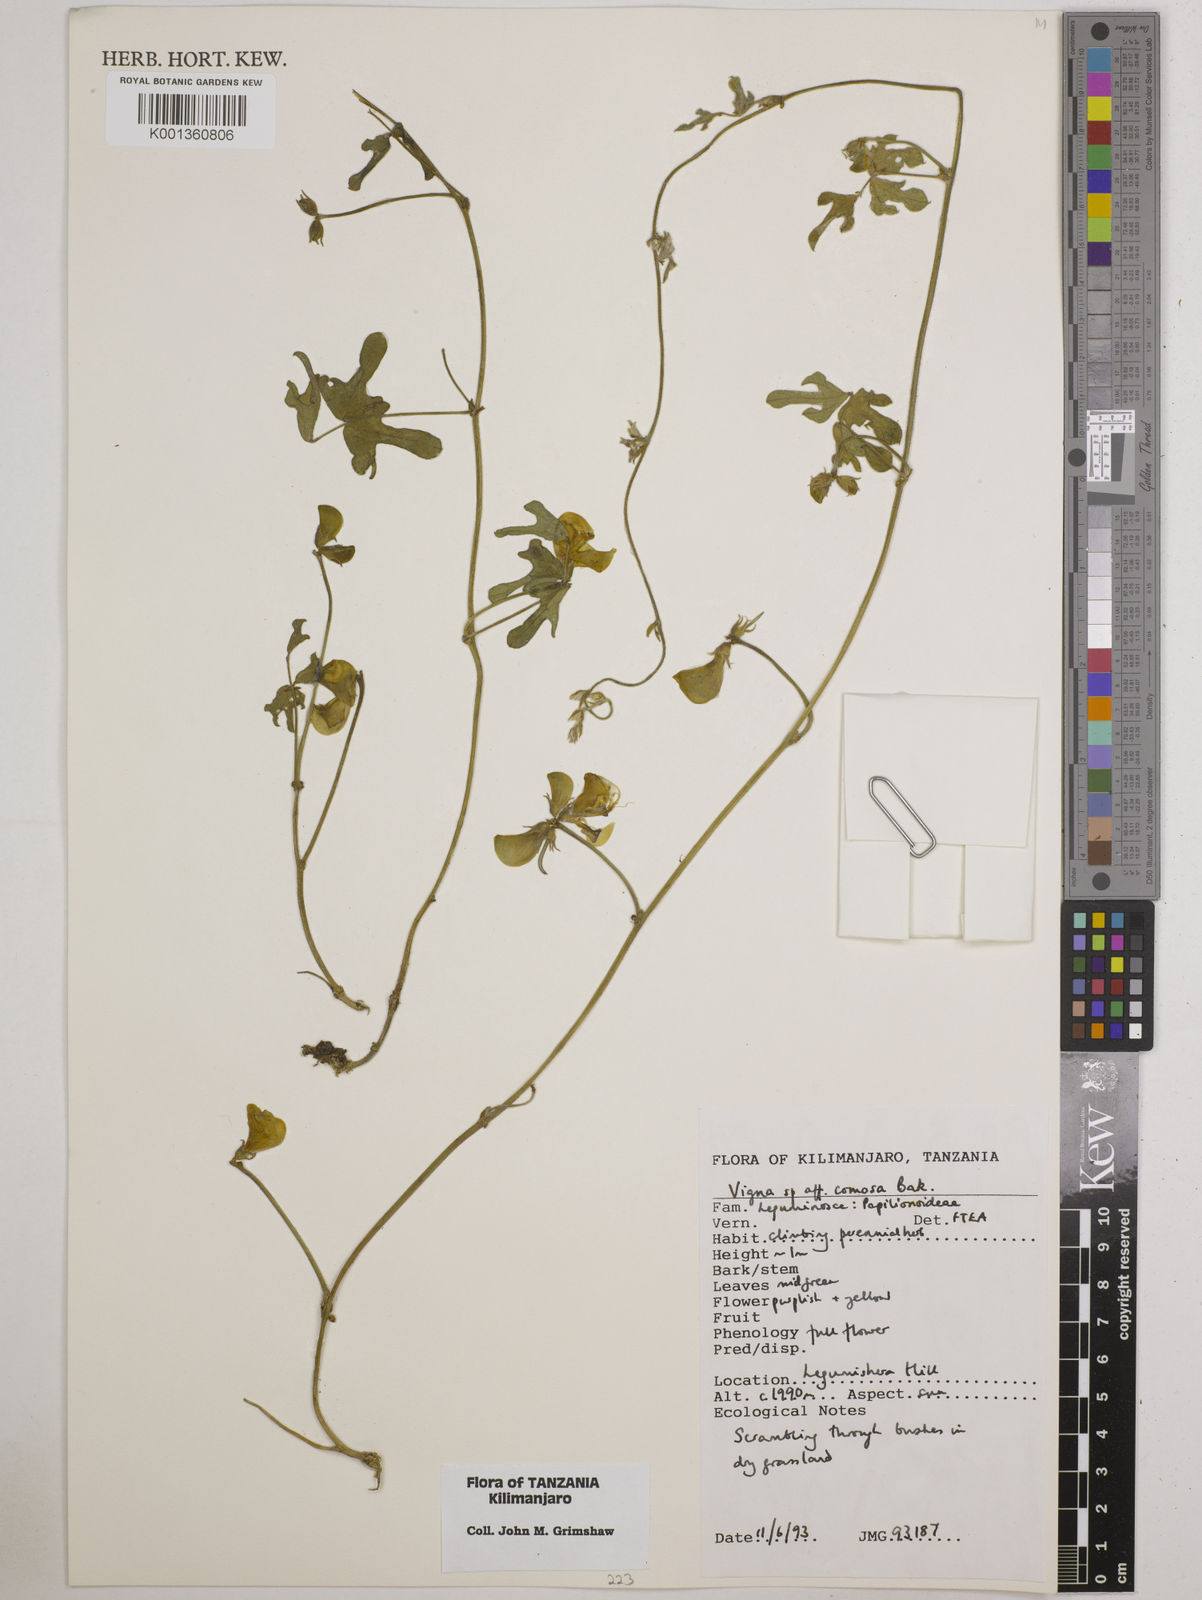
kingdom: Plantae
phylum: Tracheophyta
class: Magnoliopsida
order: Fabales
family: Fabaceae
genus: Vigna
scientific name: Vigna
